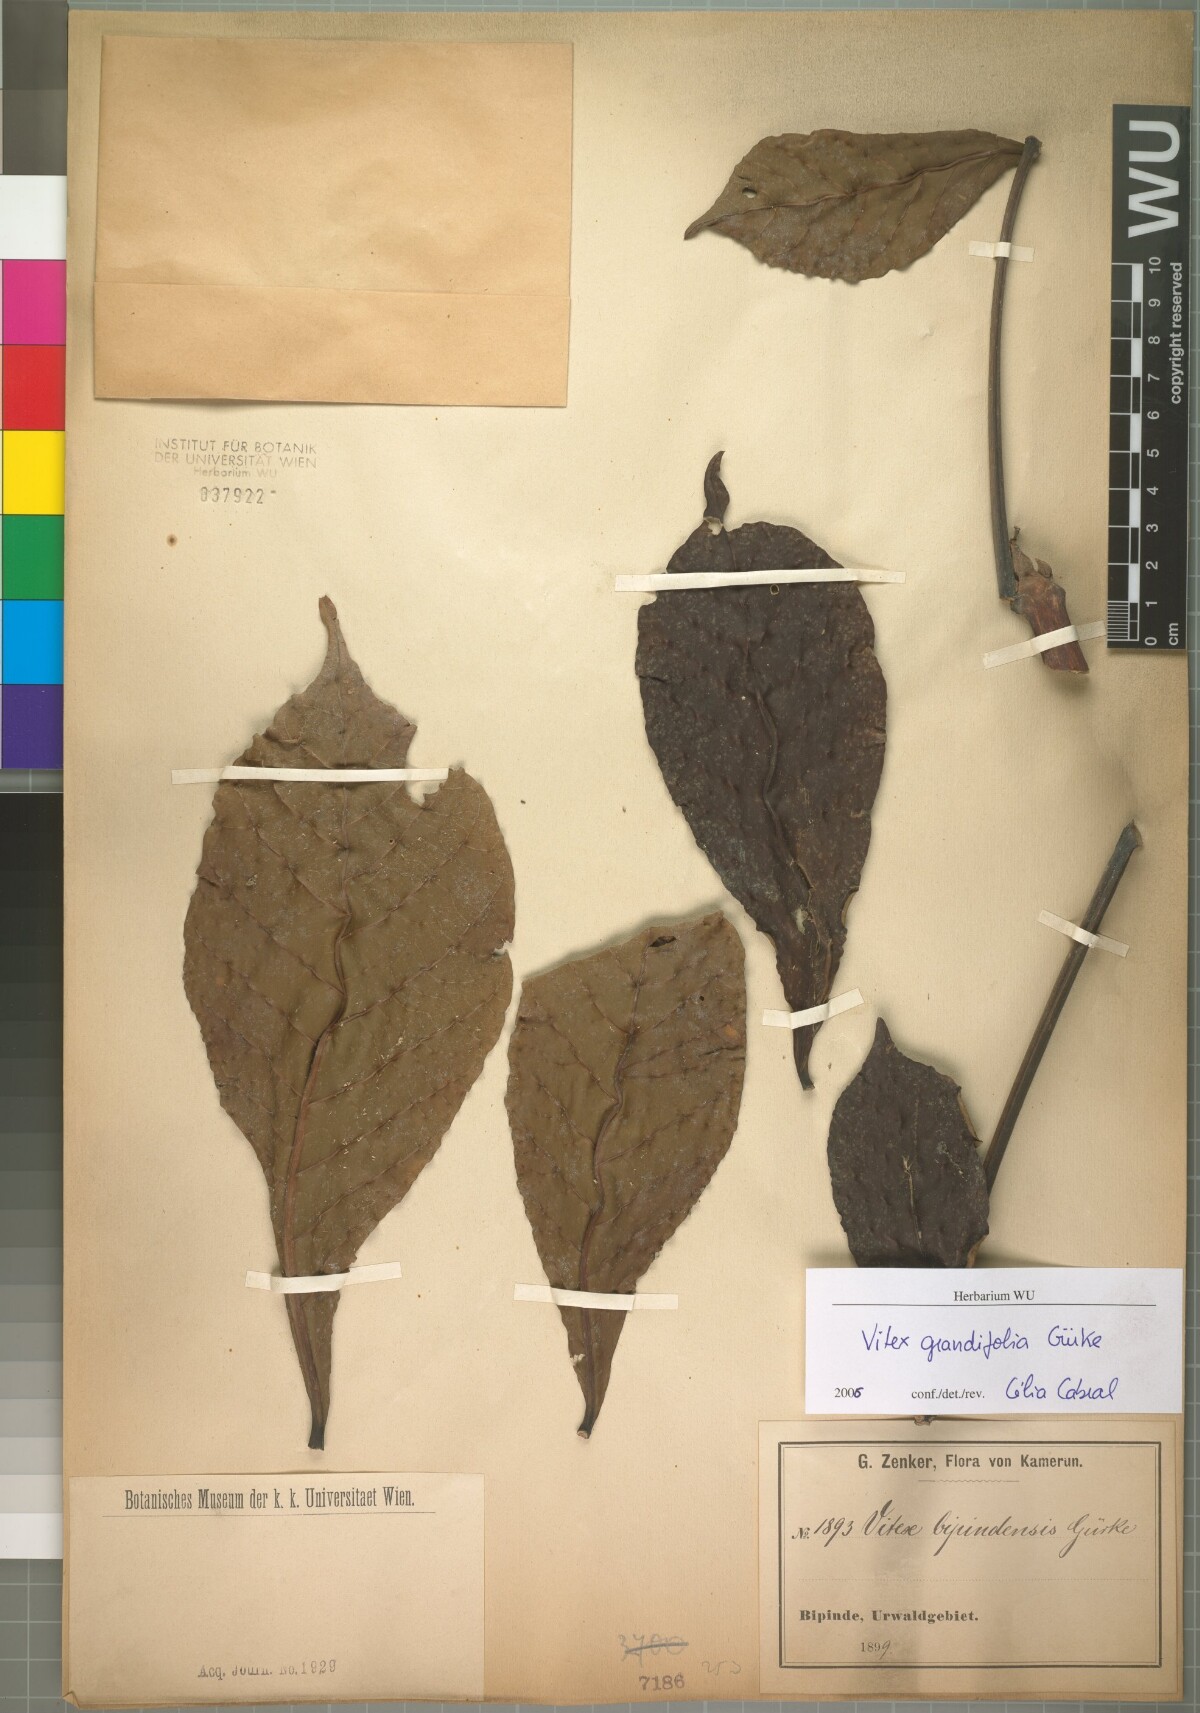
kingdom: Plantae
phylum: Tracheophyta
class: Magnoliopsida
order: Lamiales
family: Lamiaceae
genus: Vitex
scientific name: Vitex grandifolia
